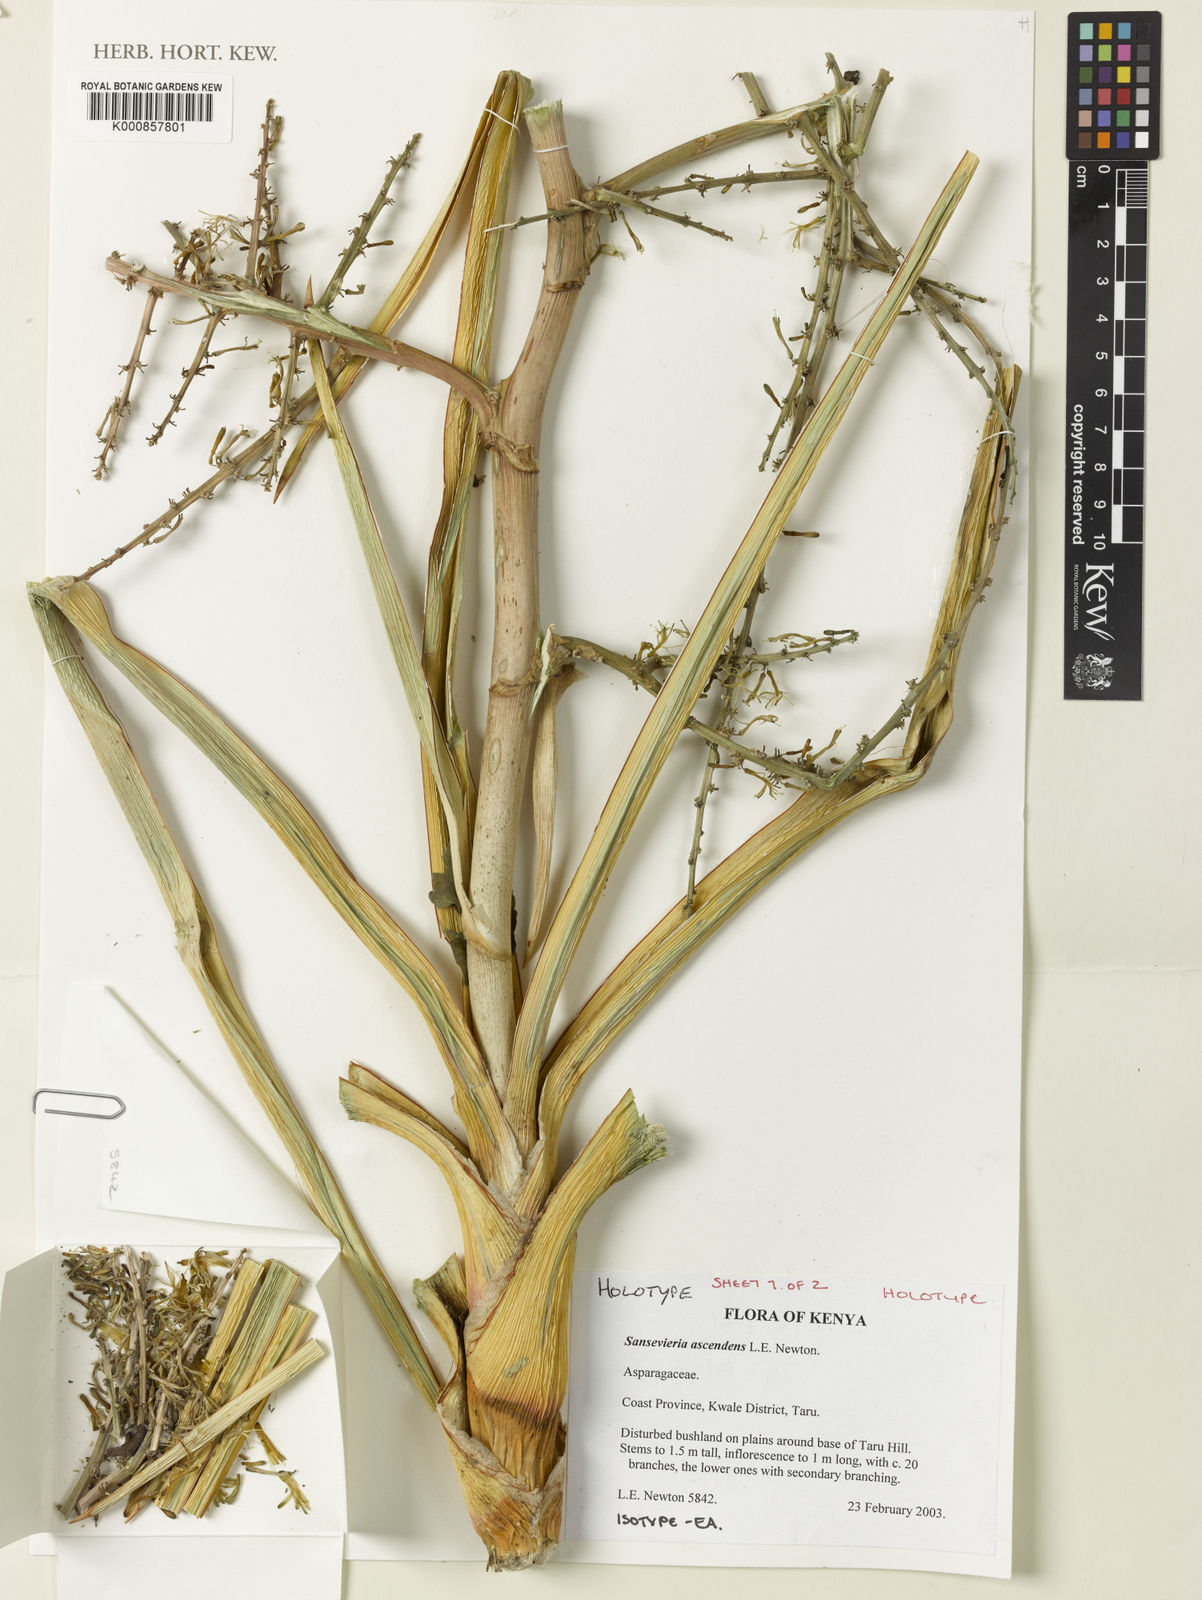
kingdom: Plantae
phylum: Tracheophyta
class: Liliopsida
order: Asparagales
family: Asparagaceae
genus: Dracaena
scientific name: Dracaena ascendens
